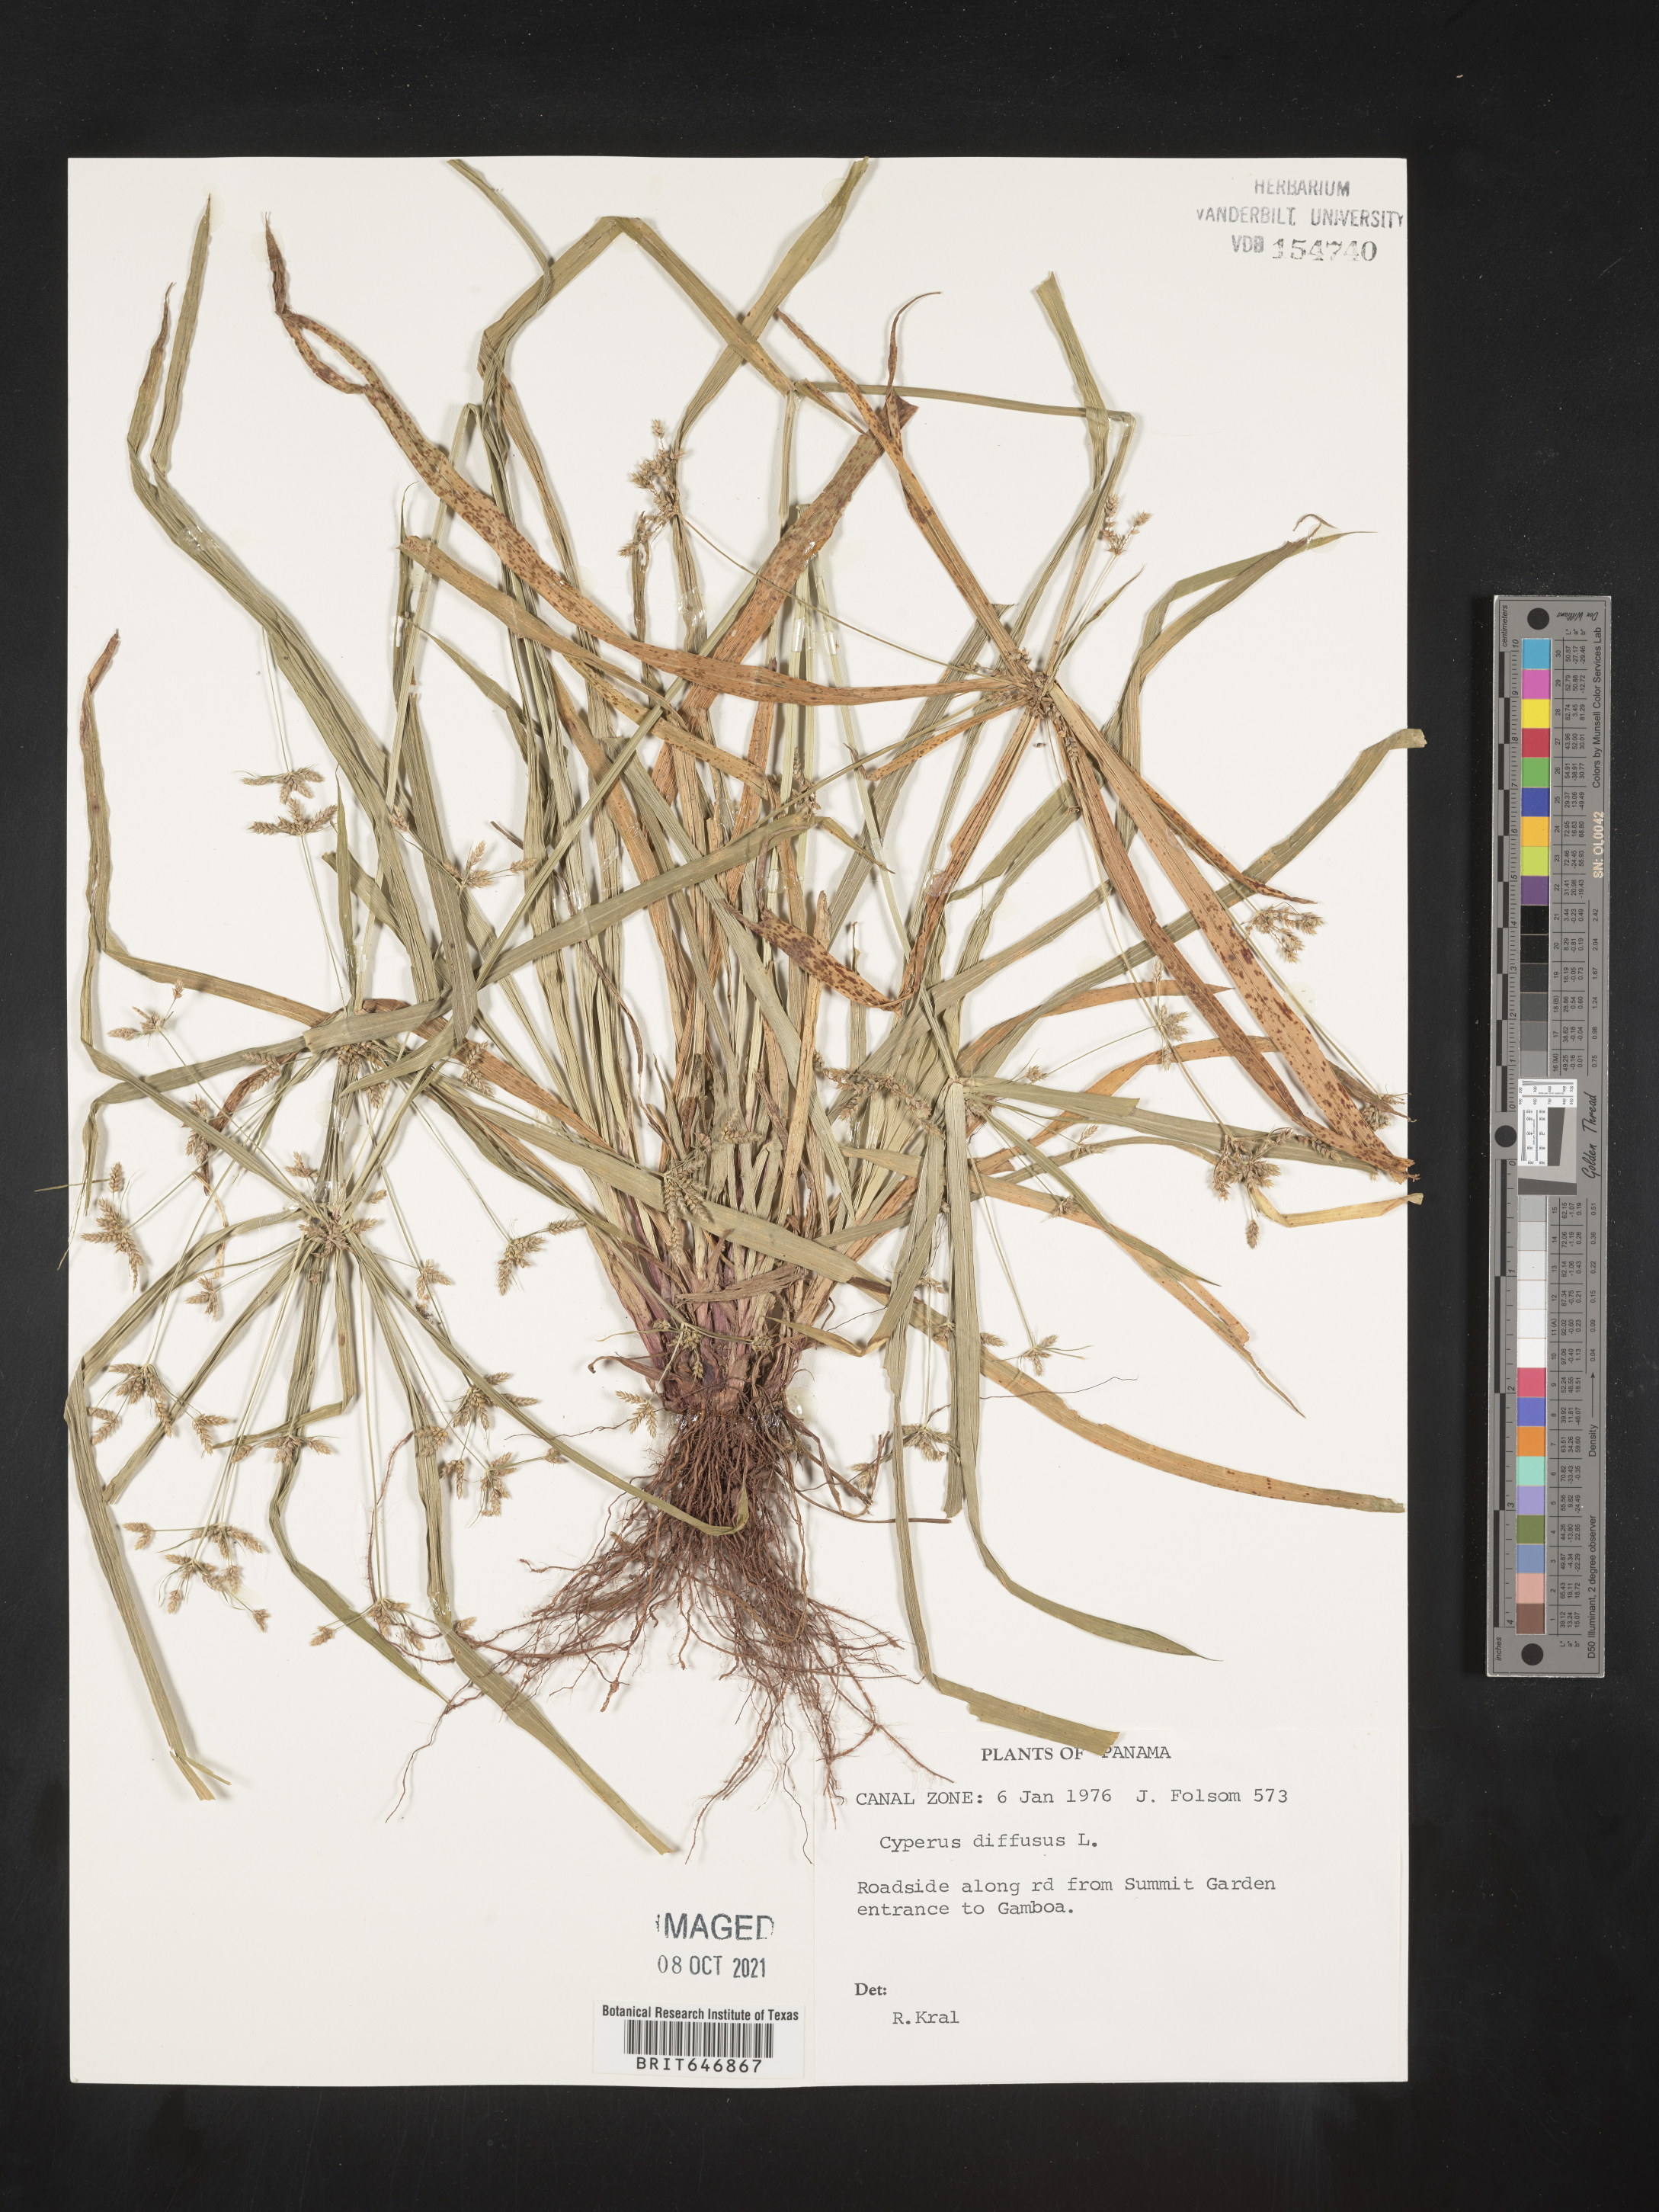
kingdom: Plantae
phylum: Tracheophyta
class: Liliopsida
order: Poales
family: Cyperaceae
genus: Cyperus
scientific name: Cyperus diffusus
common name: Dwarf umbrella grass
